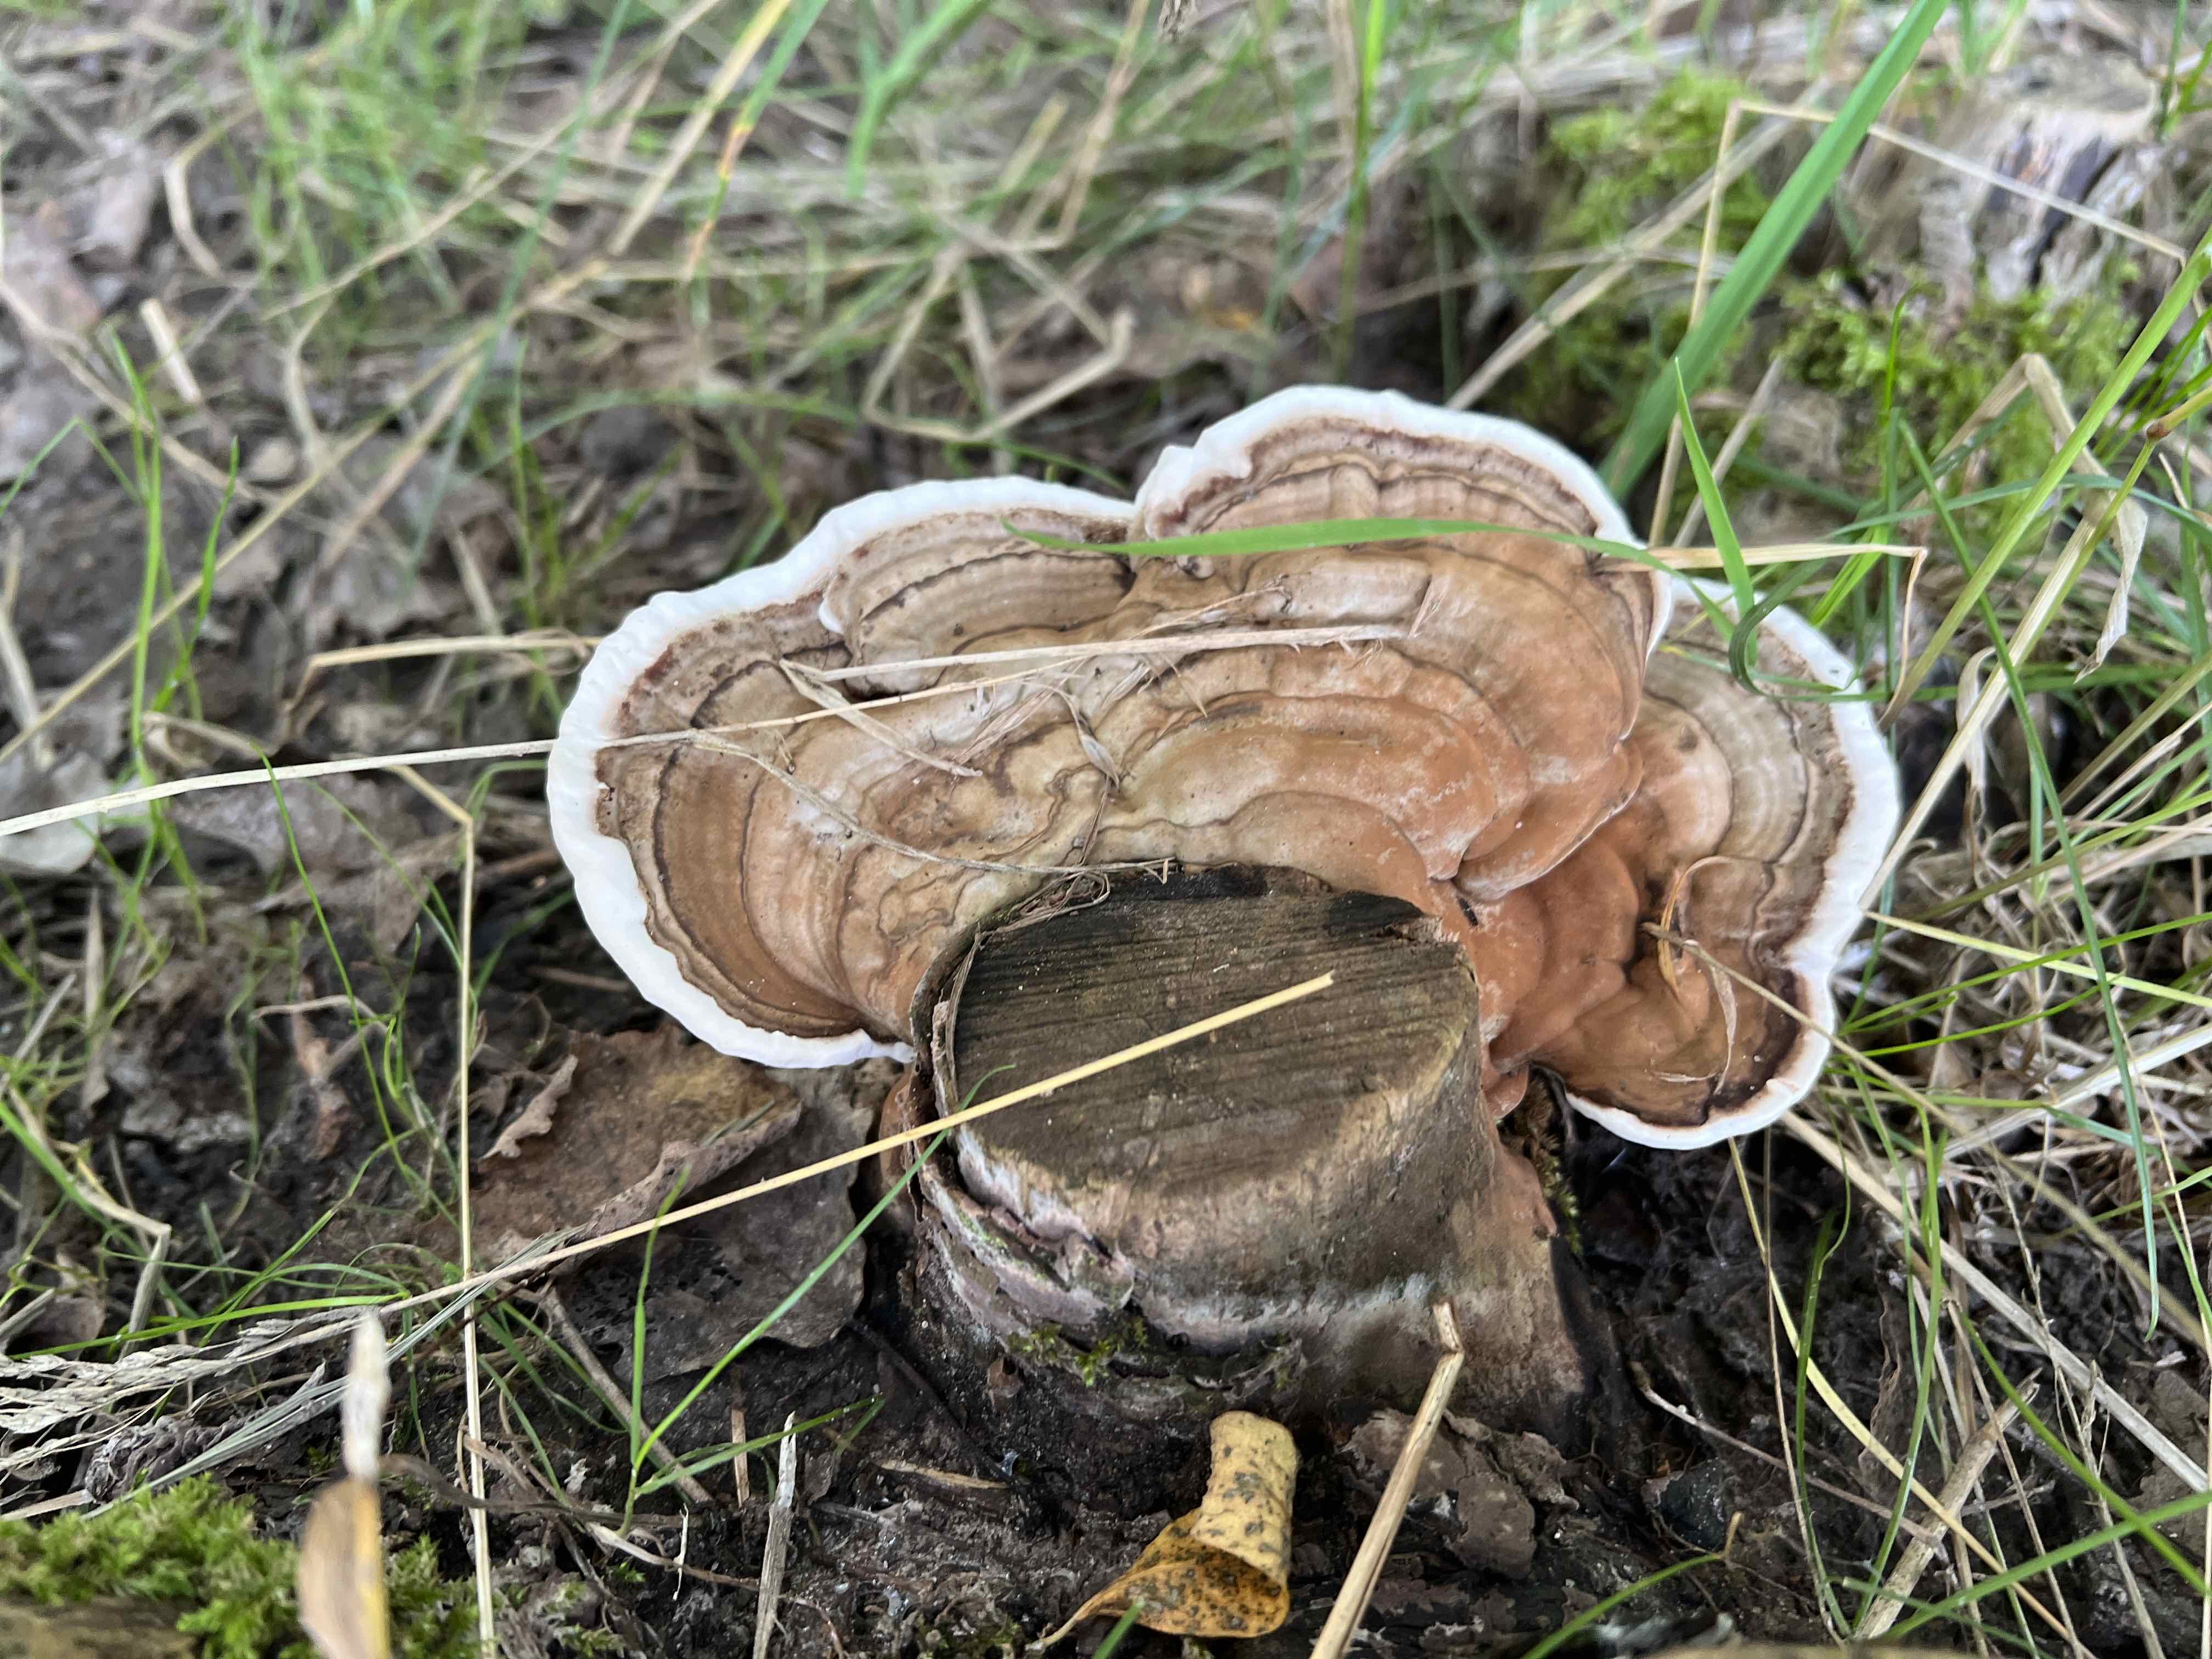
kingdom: Fungi
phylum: Basidiomycota
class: Agaricomycetes
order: Polyporales
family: Polyporaceae
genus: Ganoderma
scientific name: Ganoderma applanatum
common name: flad lakporesvamp
